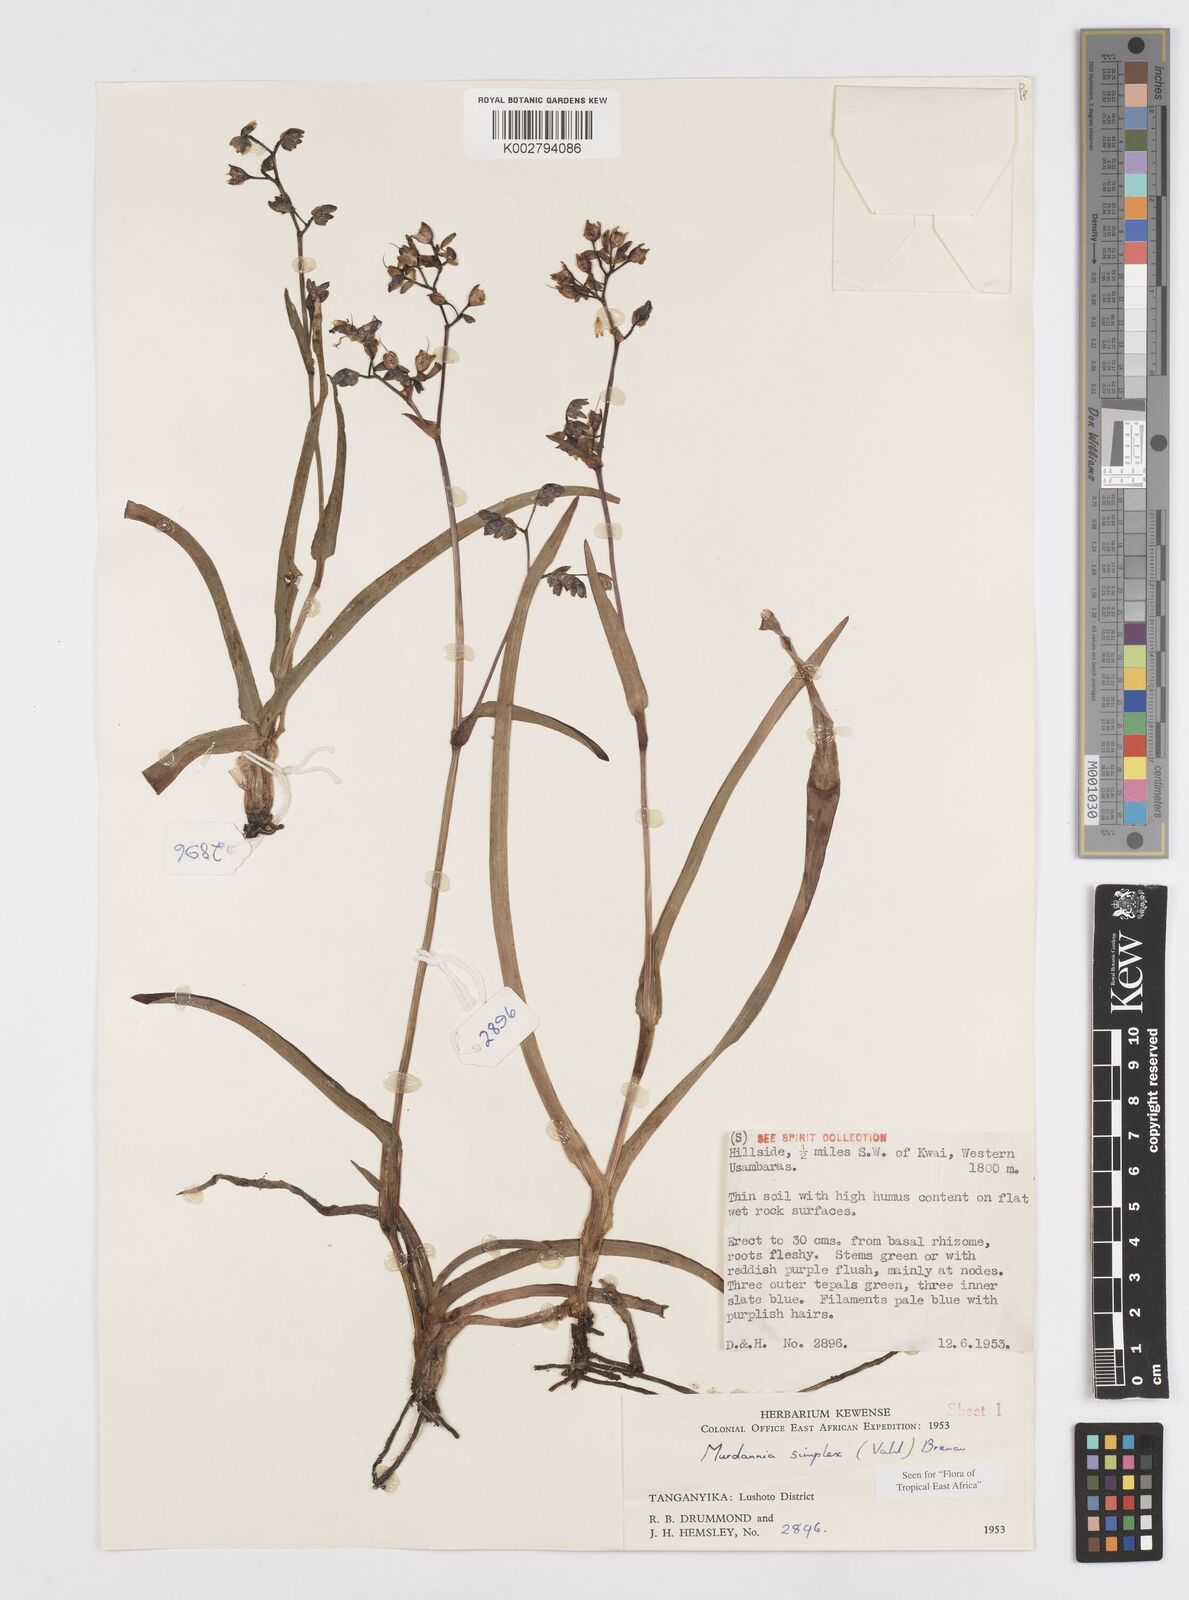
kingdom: Plantae
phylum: Tracheophyta
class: Liliopsida
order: Commelinales
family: Commelinaceae
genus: Murdannia
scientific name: Murdannia simplex
